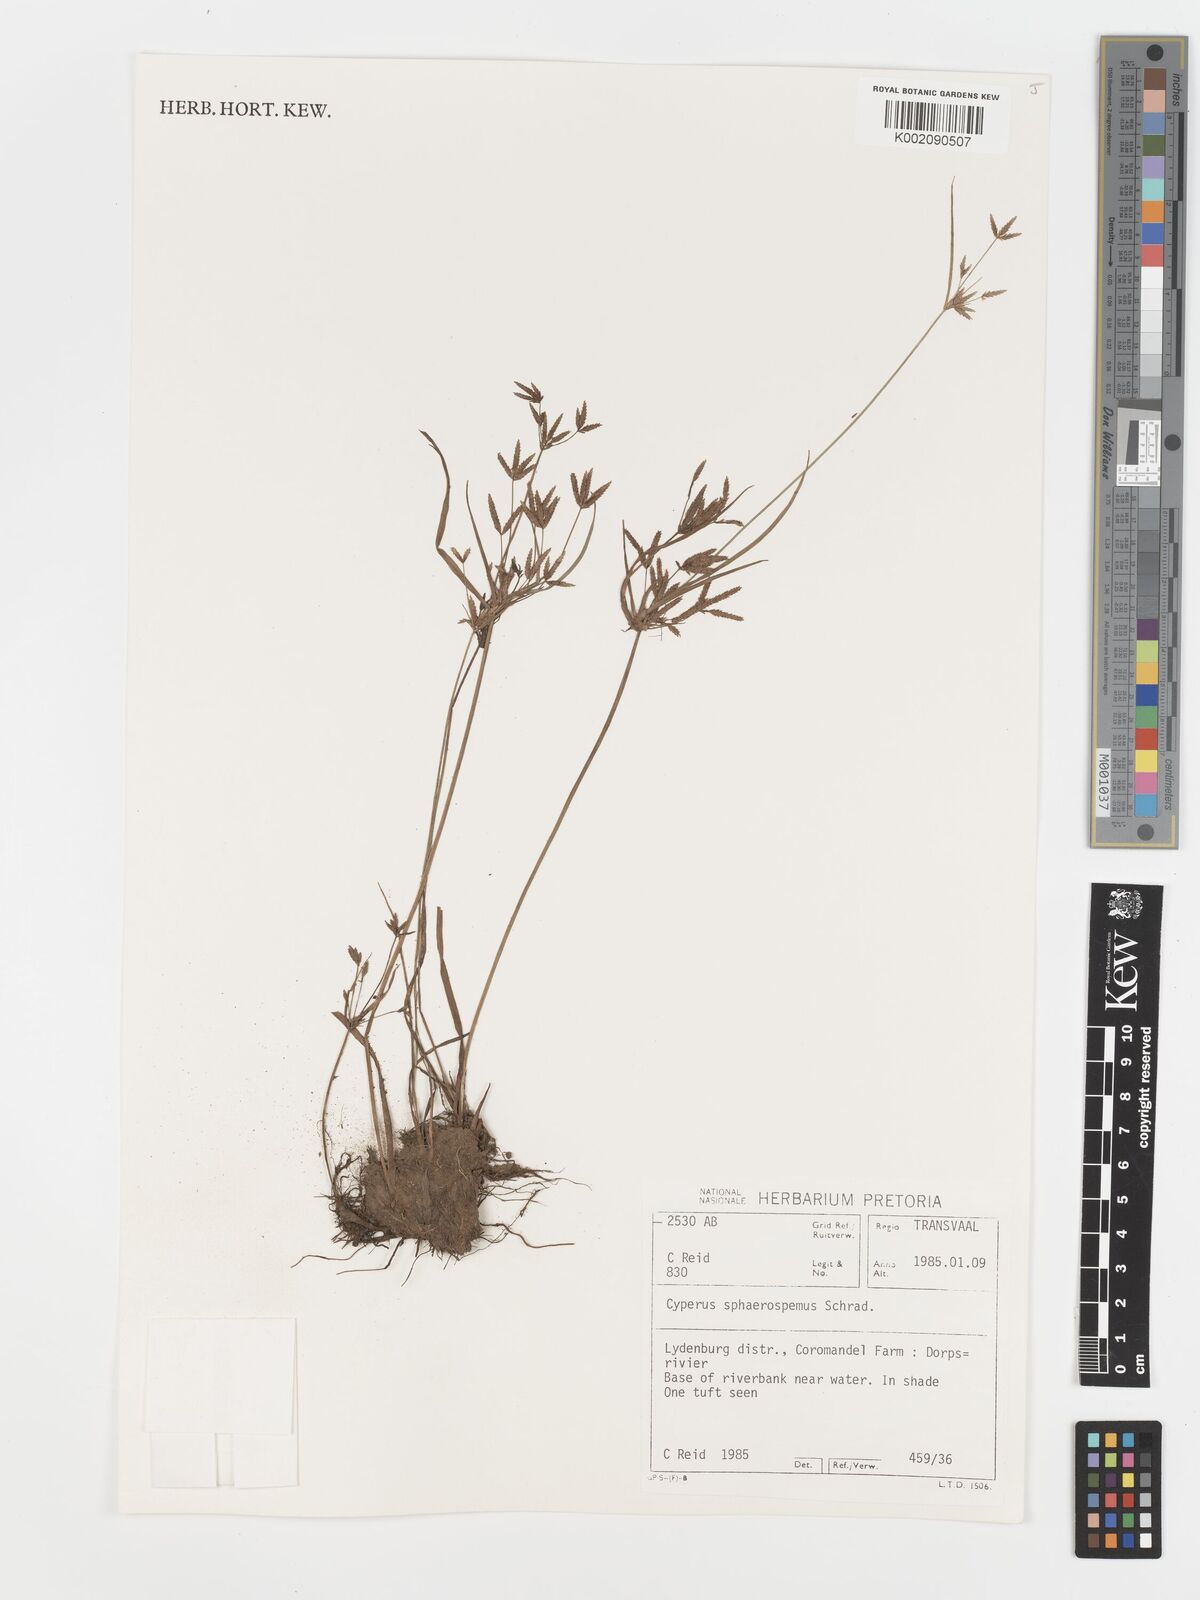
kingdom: Plantae
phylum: Tracheophyta
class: Liliopsida
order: Poales
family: Cyperaceae
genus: Cyperus
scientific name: Cyperus sphaerospermus
